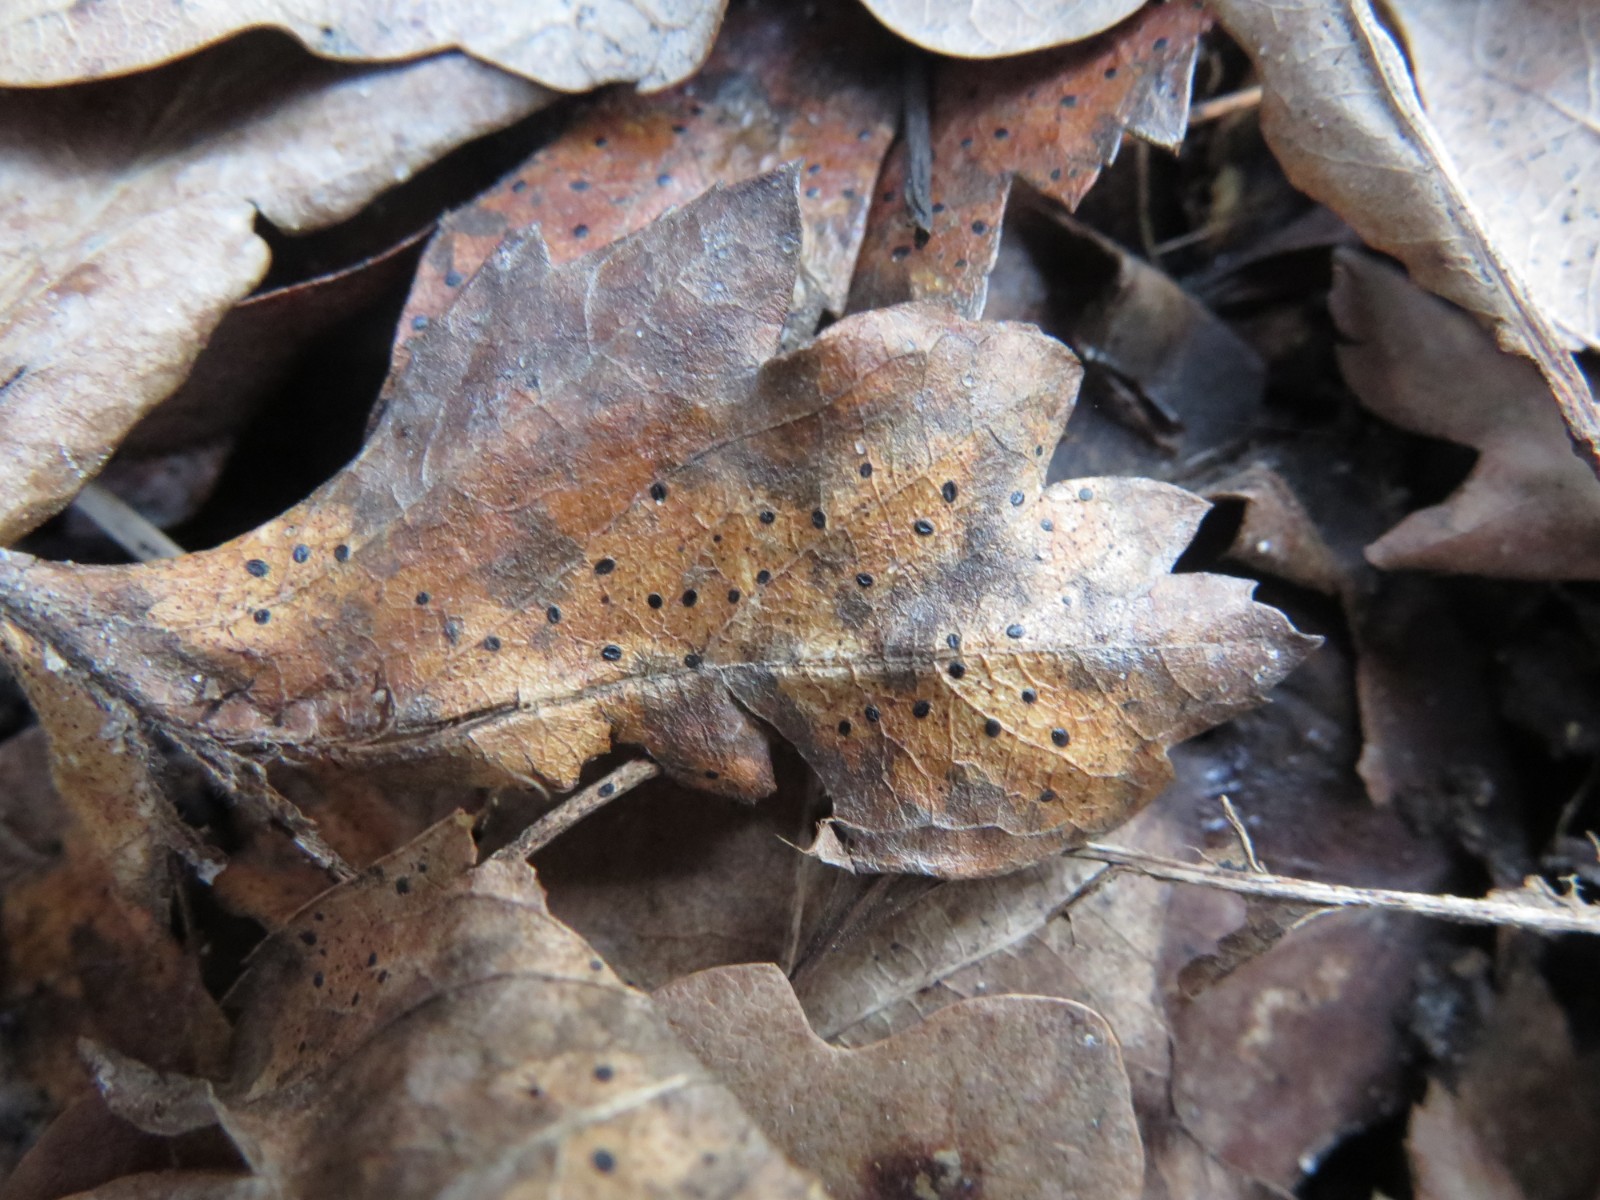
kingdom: Fungi
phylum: Ascomycota
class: Leotiomycetes
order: Rhytismatales
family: Rhytismataceae
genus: Lophodermium
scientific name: Lophodermium foliicola
